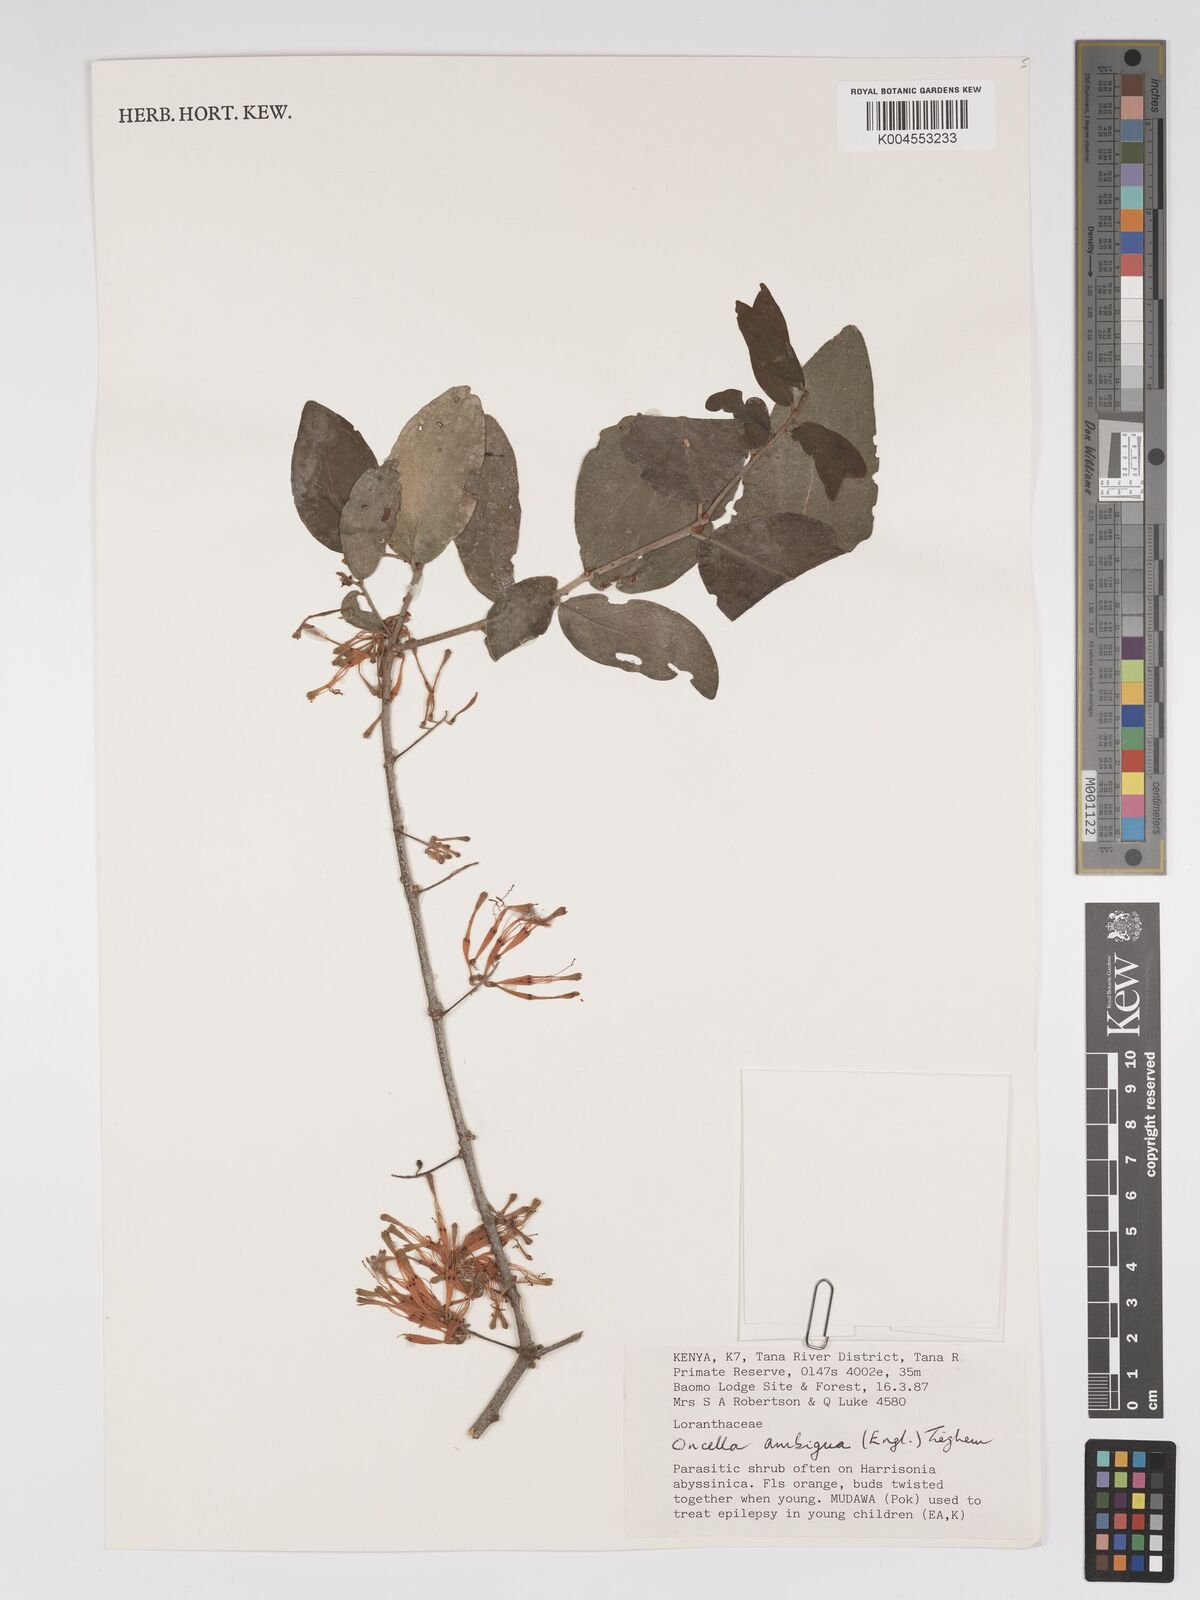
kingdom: Plantae
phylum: Tracheophyta
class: Magnoliopsida
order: Santalales
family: Loranthaceae
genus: Oncella
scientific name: Oncella ambigua
